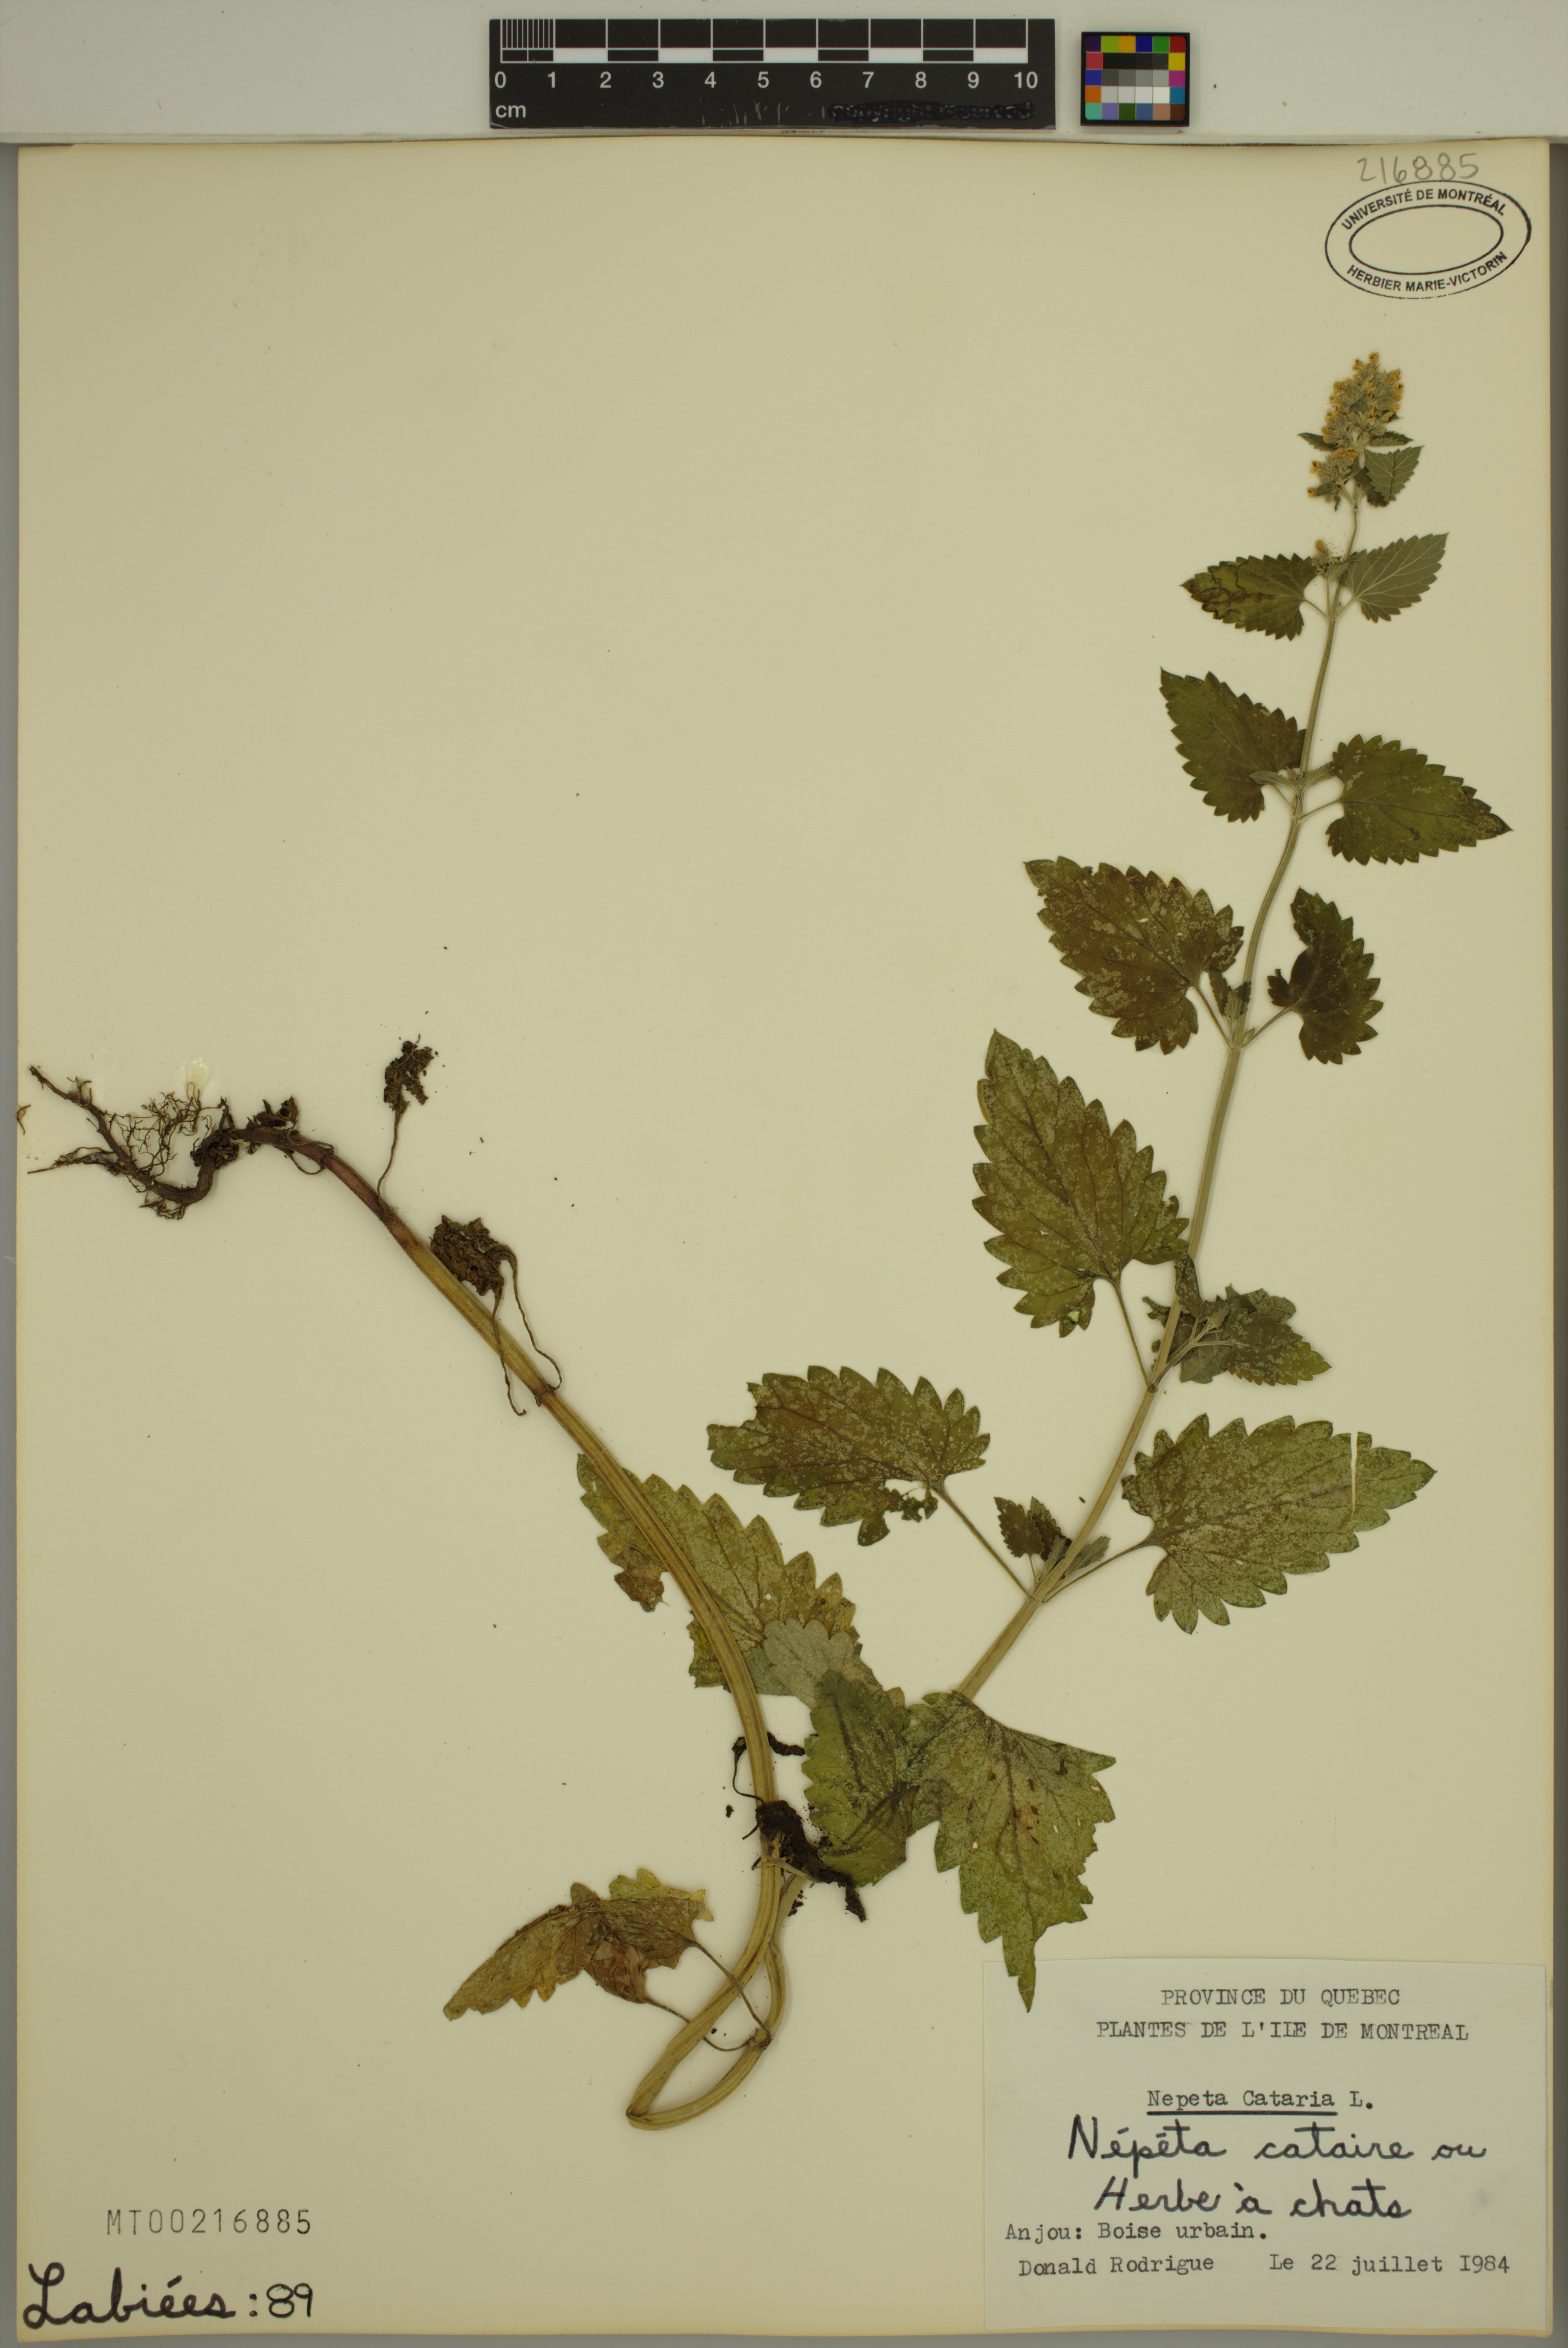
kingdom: Plantae
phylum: Tracheophyta
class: Magnoliopsida
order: Lamiales
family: Lamiaceae
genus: Nepeta
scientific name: Nepeta cataria
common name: Catnip
